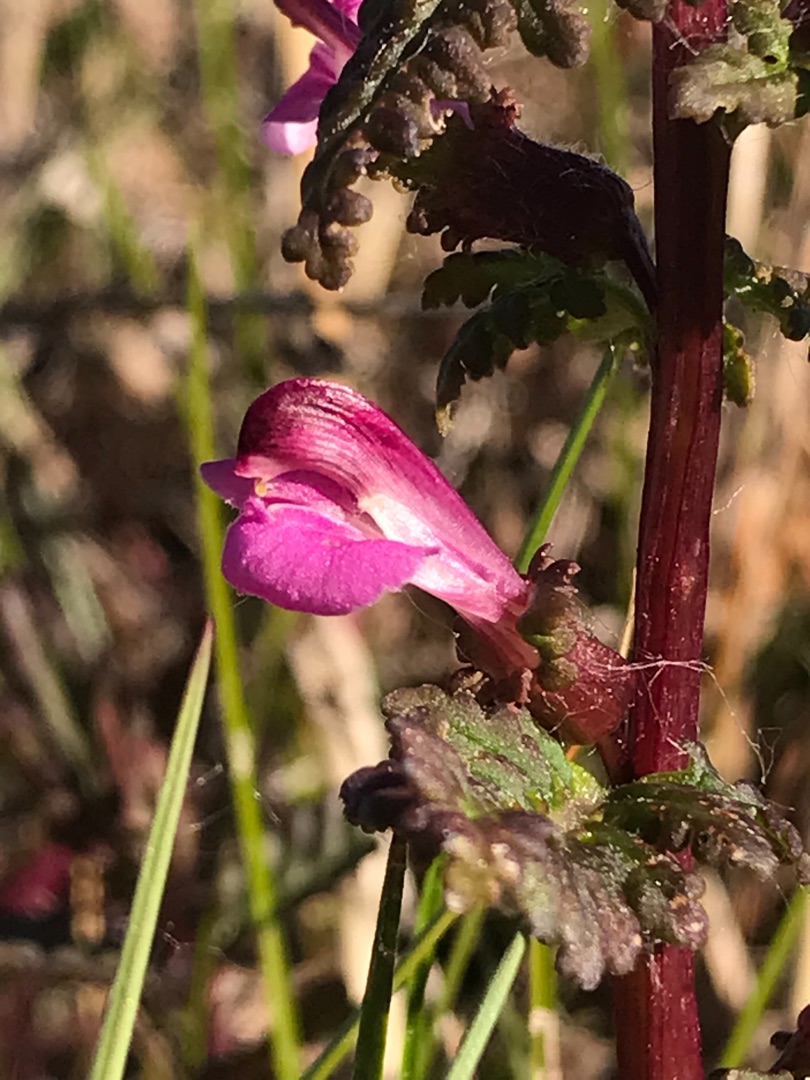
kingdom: Plantae
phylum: Tracheophyta
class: Magnoliopsida
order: Lamiales
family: Orobanchaceae
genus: Pedicularis
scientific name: Pedicularis palustris
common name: Eng-troldurt
